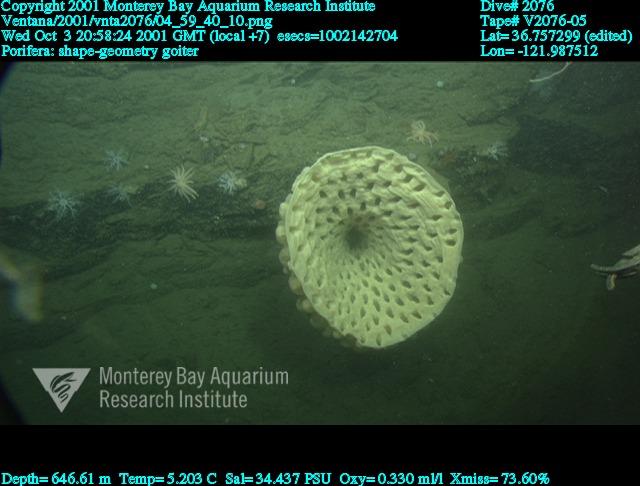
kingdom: Animalia
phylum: Porifera
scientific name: Porifera
